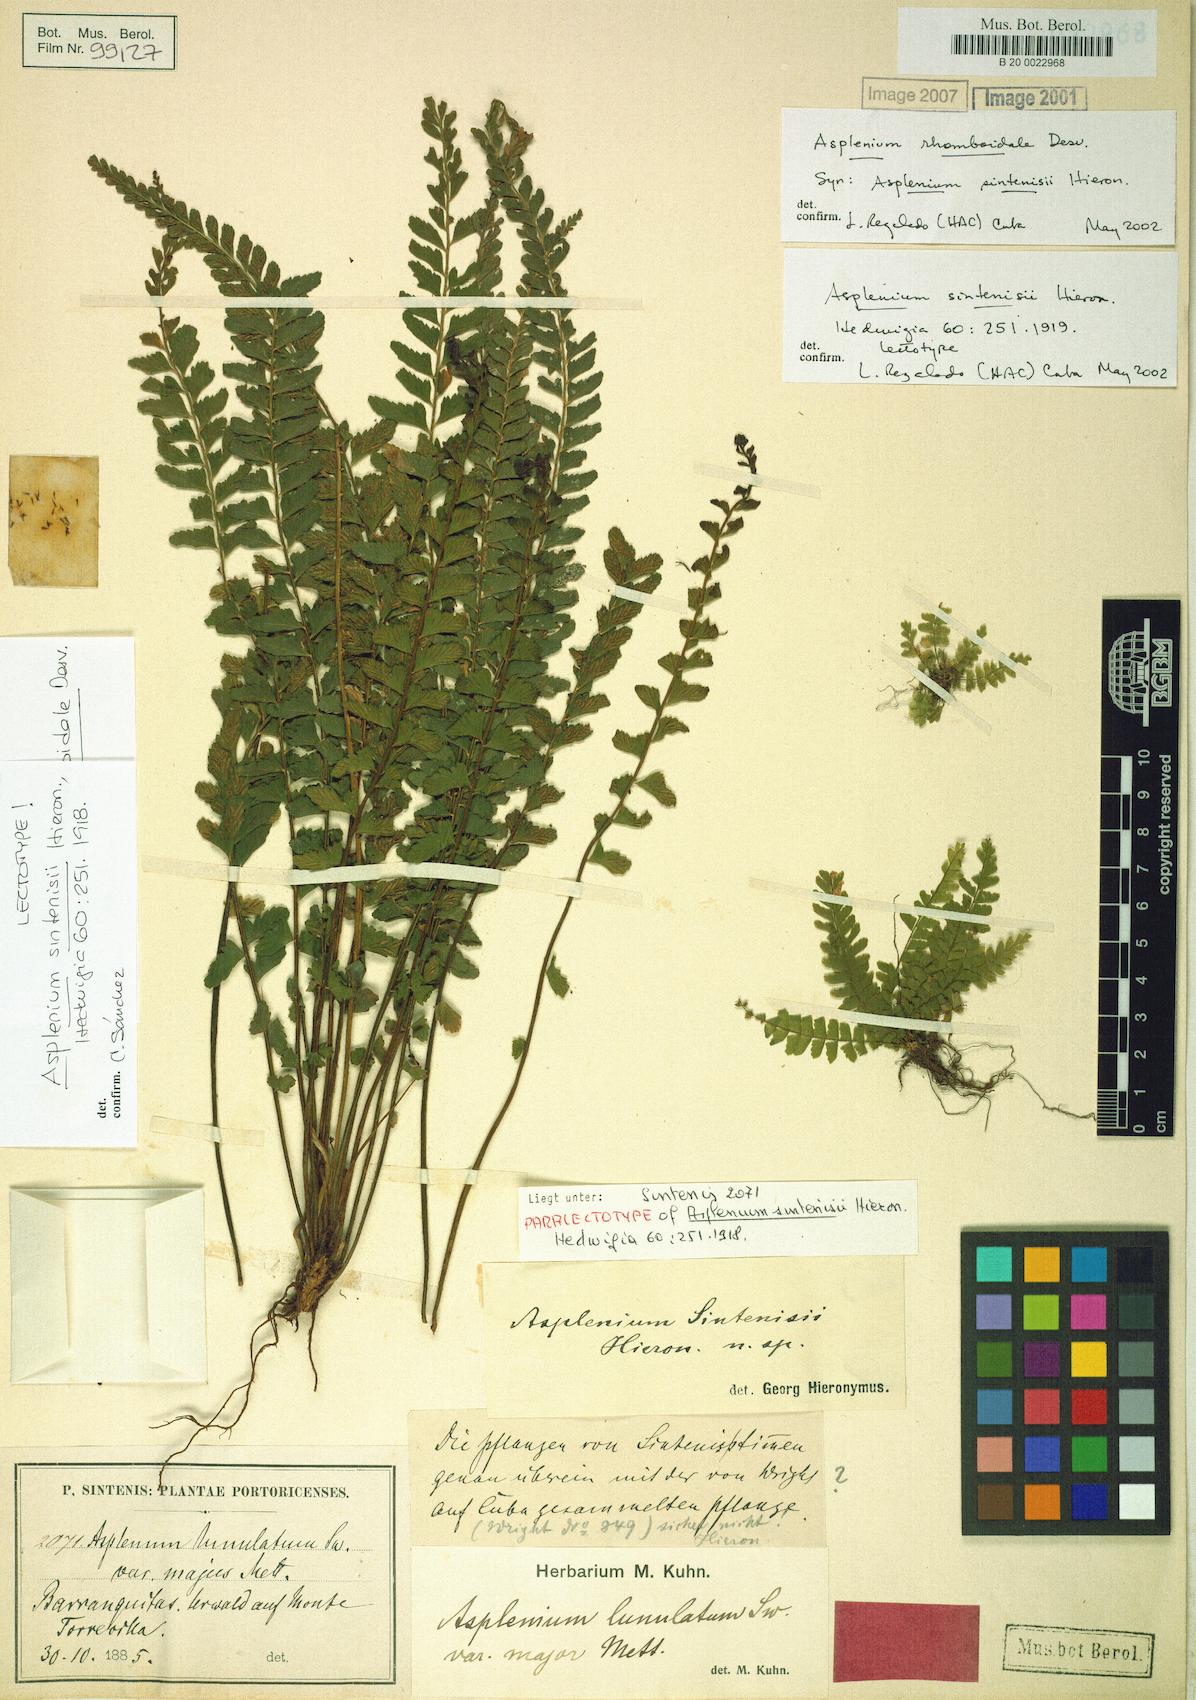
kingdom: Plantae
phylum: Tracheophyta
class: Polypodiopsida
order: Polypodiales
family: Aspleniaceae
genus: Asplenium
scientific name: Asplenium rhomboidale
